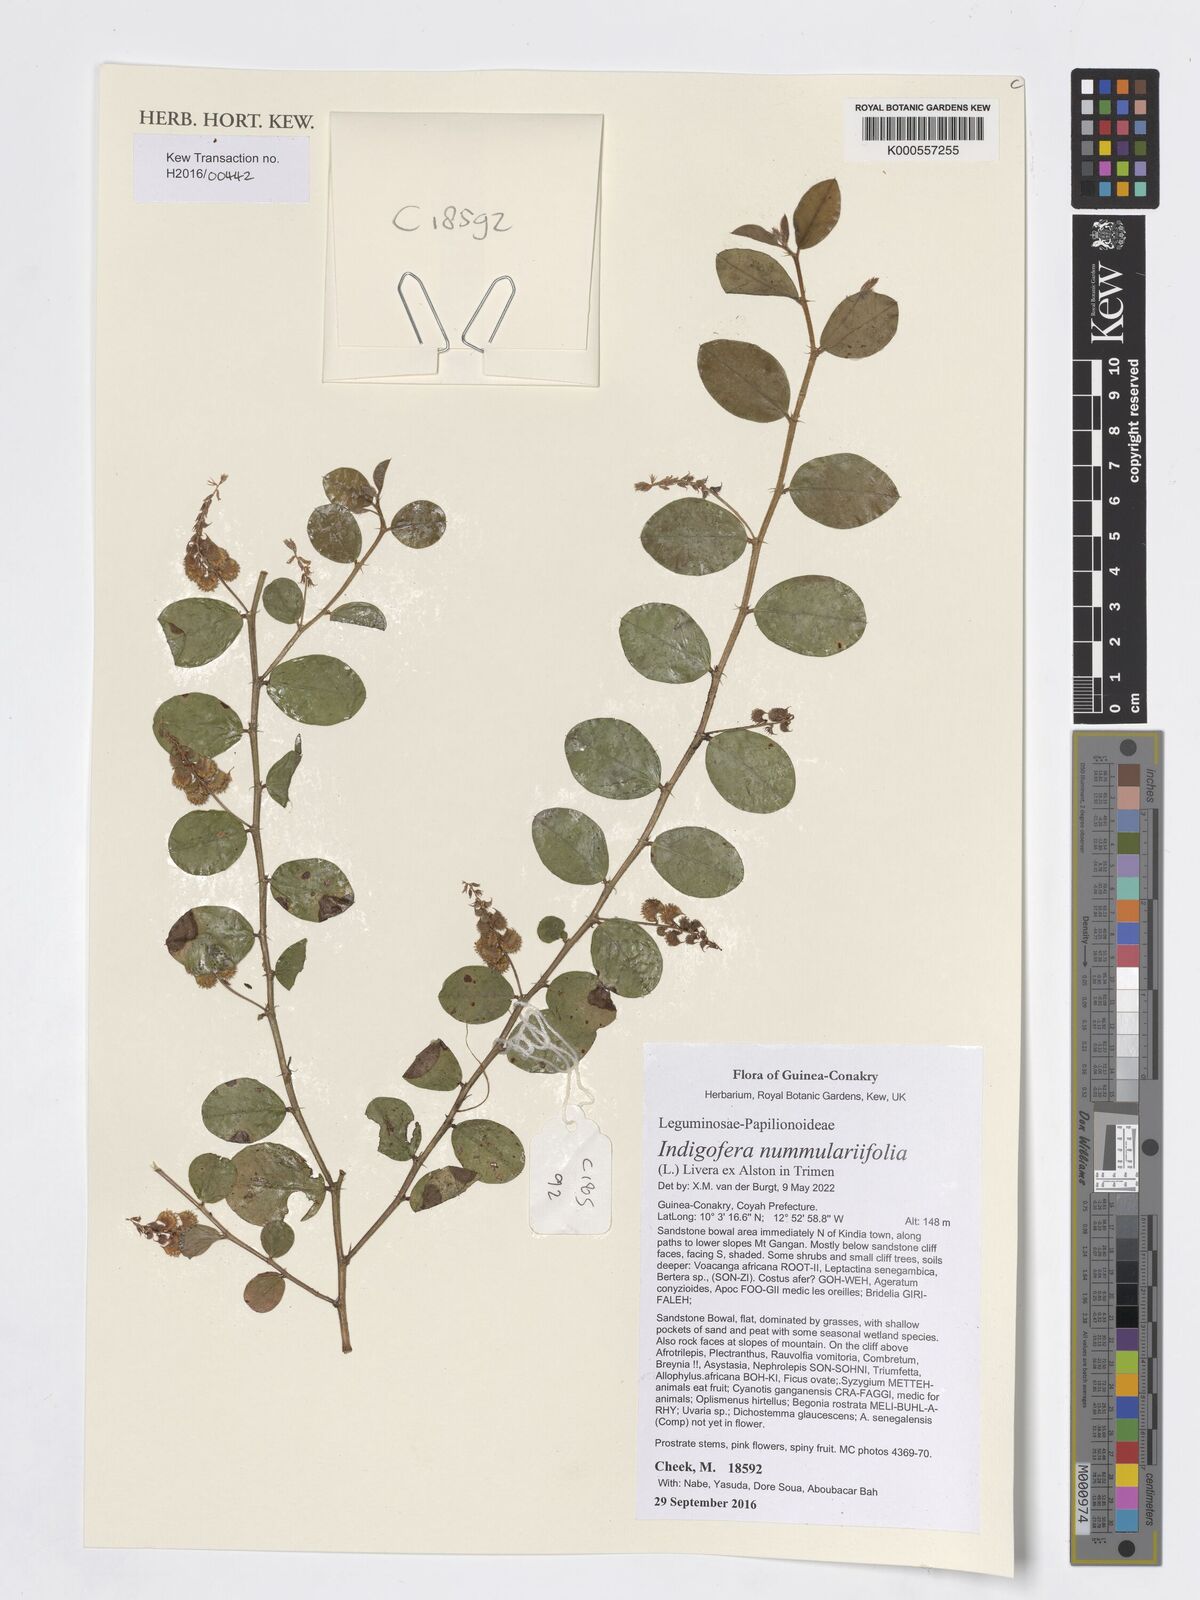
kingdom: Plantae
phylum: Tracheophyta
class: Magnoliopsida
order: Fabales
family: Fabaceae
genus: Indigofera
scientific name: Indigofera nummulariifolia
